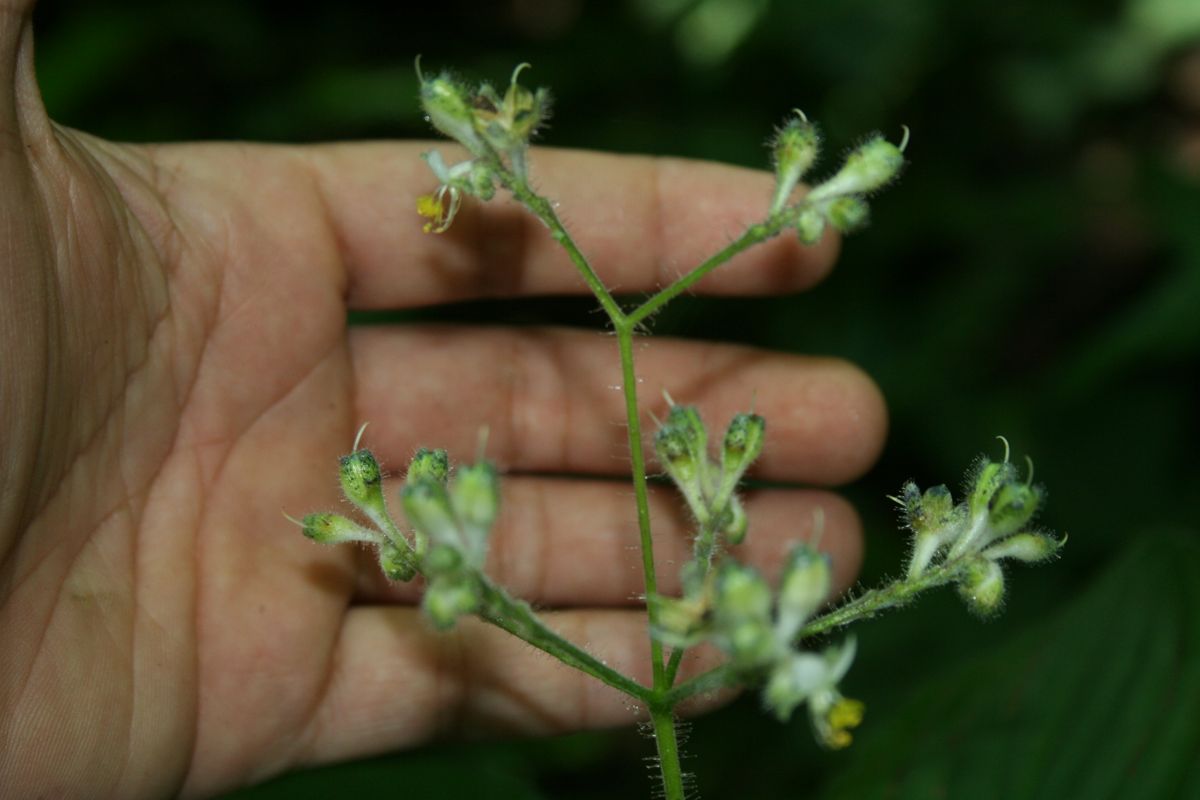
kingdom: Plantae
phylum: Tracheophyta
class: Liliopsida
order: Commelinales
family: Commelinaceae
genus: Tinantia
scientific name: Tinantia parviflora
